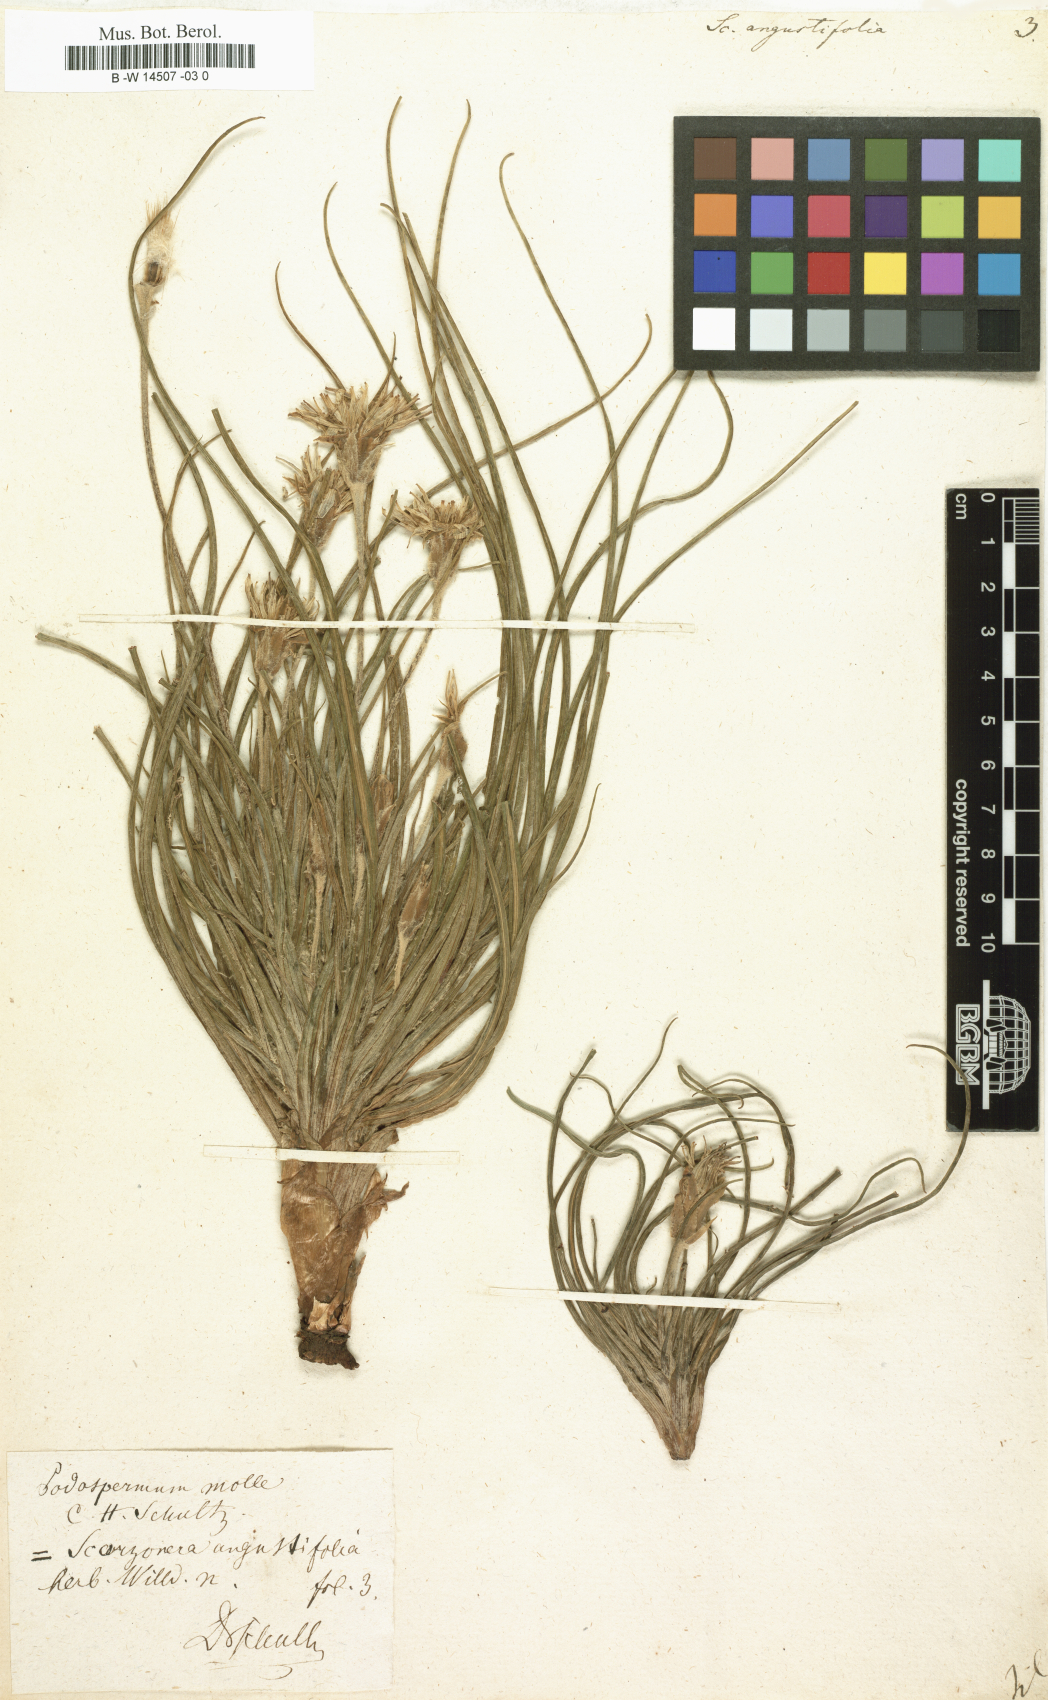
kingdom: Plantae
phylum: Tracheophyta
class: Magnoliopsida
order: Asterales
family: Asteraceae
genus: Scorzonera
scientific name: Scorzonera angustifolia
